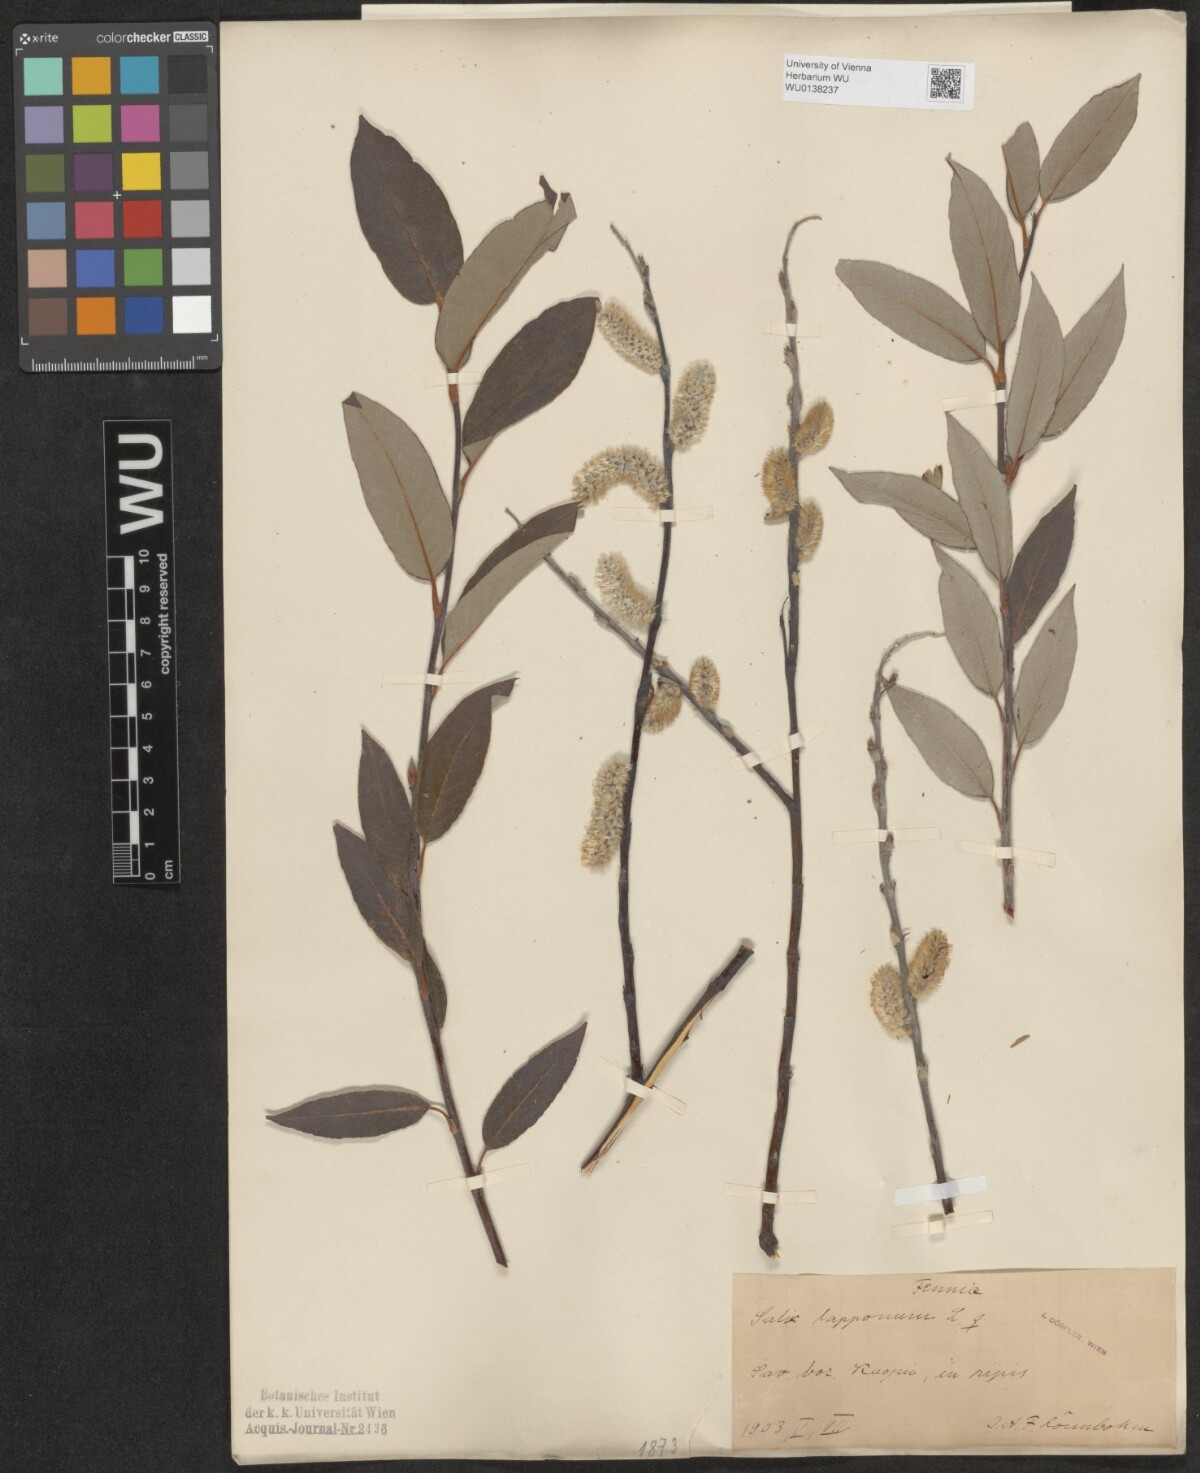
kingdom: Plantae
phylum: Tracheophyta
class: Magnoliopsida
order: Malpighiales
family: Salicaceae
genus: Salix
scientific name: Salix lapponum
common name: Downy willow
